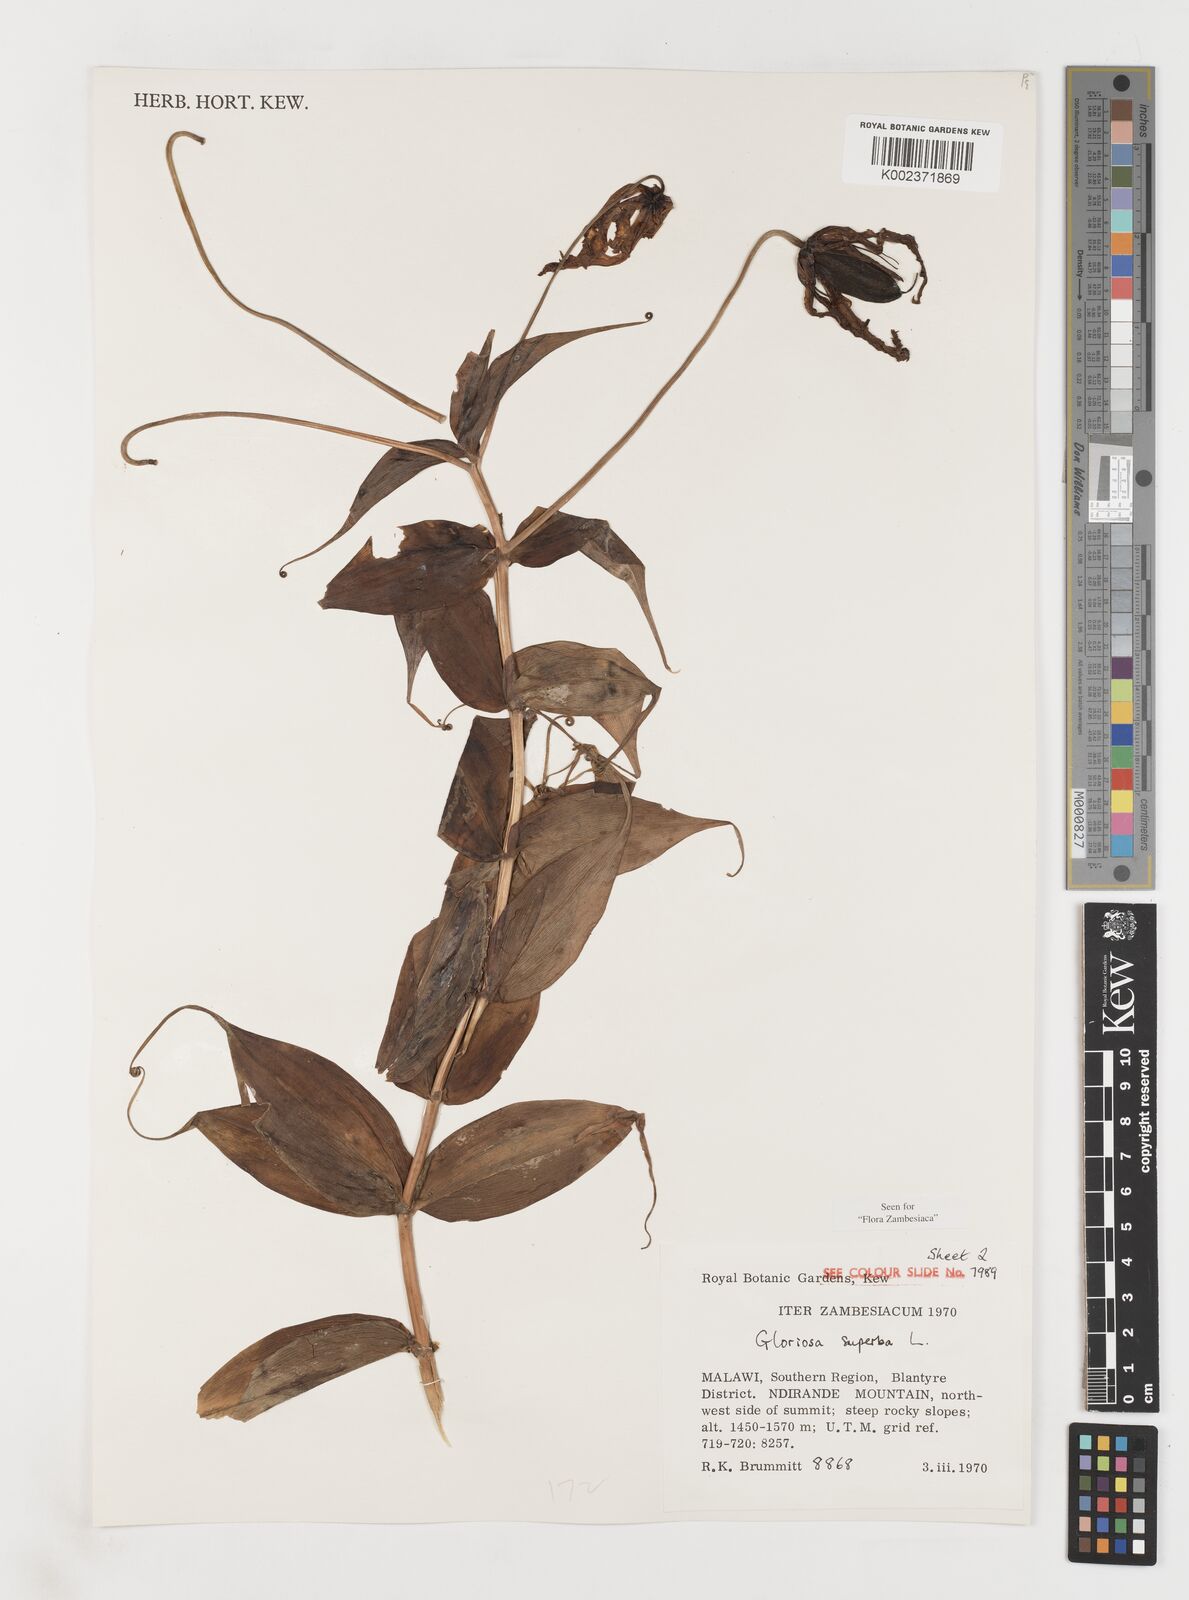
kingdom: Plantae
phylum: Tracheophyta
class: Liliopsida
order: Liliales
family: Colchicaceae
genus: Gloriosa
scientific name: Gloriosa simplex
